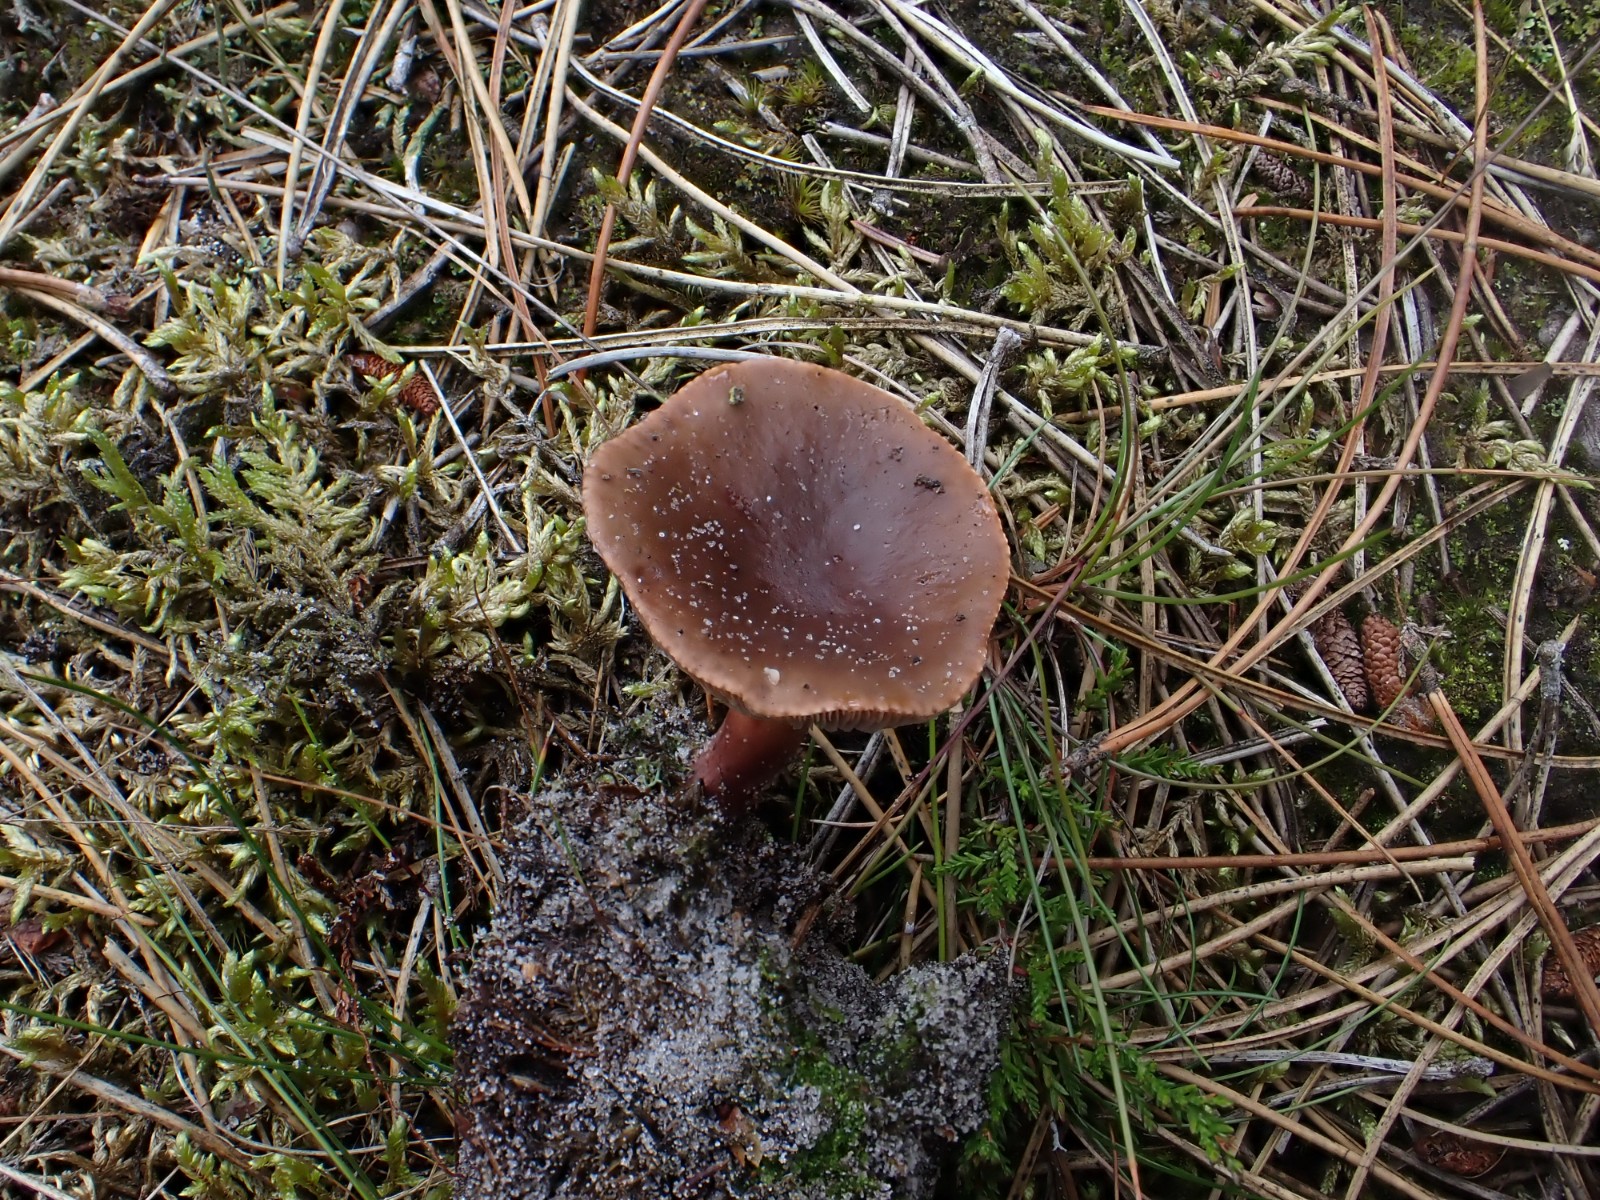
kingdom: Fungi
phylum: Basidiomycota
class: Agaricomycetes
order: Russulales
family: Russulaceae
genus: Lactarius
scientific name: Lactarius hepaticus
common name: leverbrun mælkehat
